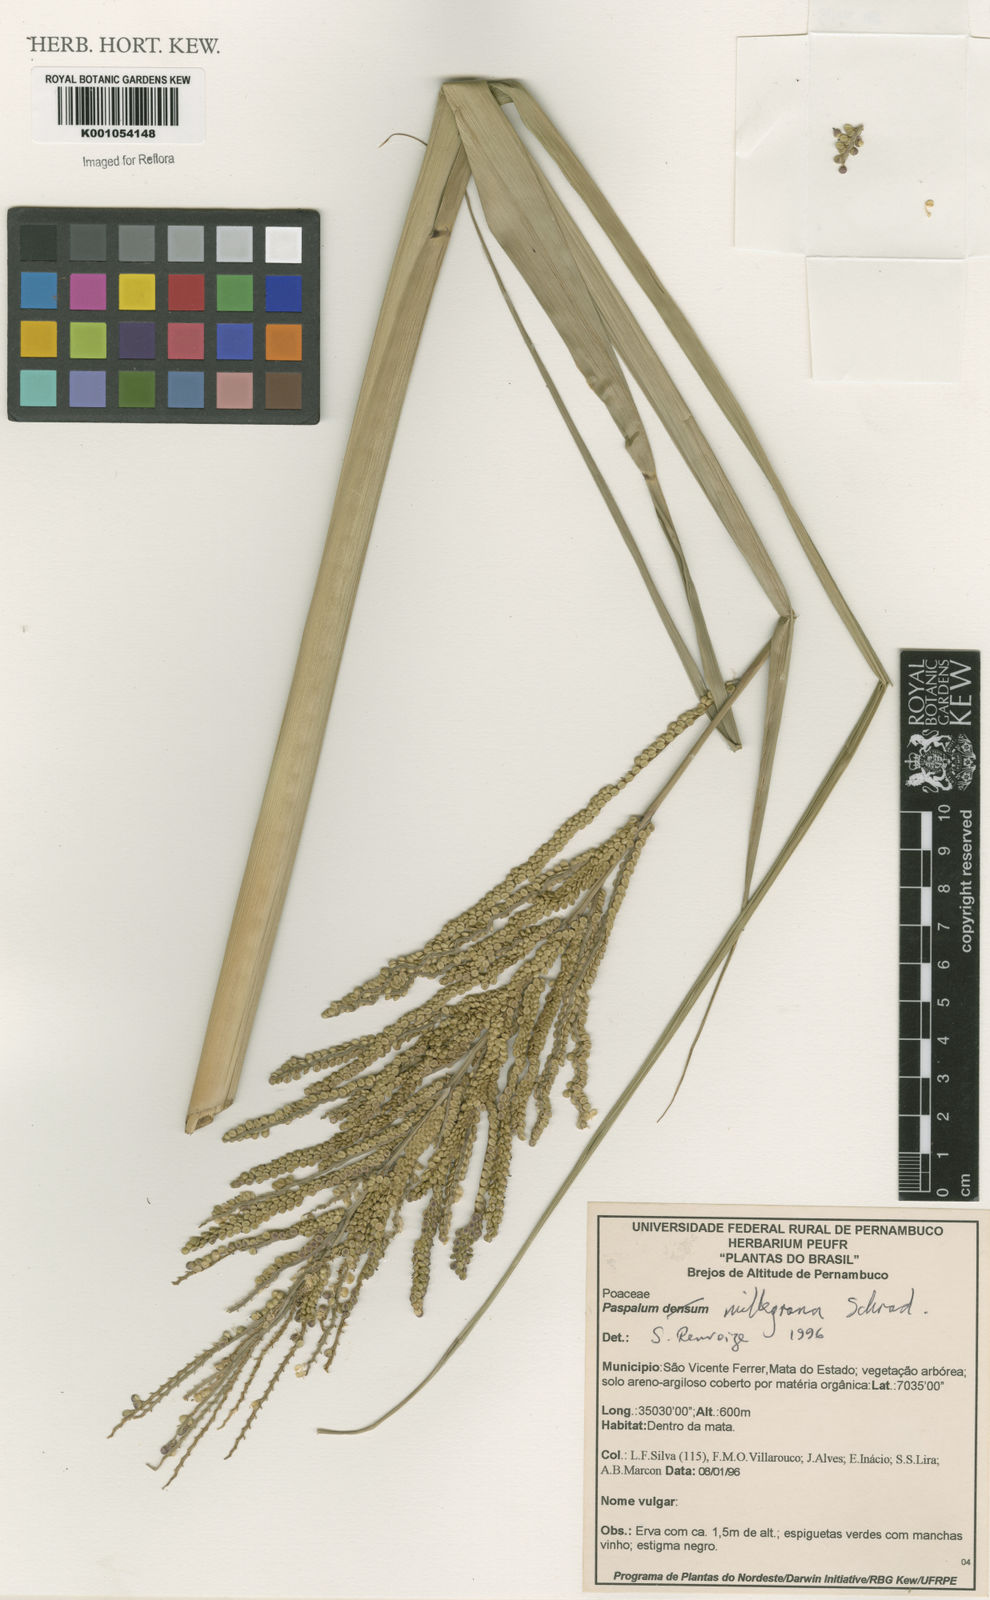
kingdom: Plantae
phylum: Tracheophyta
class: Liliopsida
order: Poales
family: Poaceae
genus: Paspalum
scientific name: Paspalum
